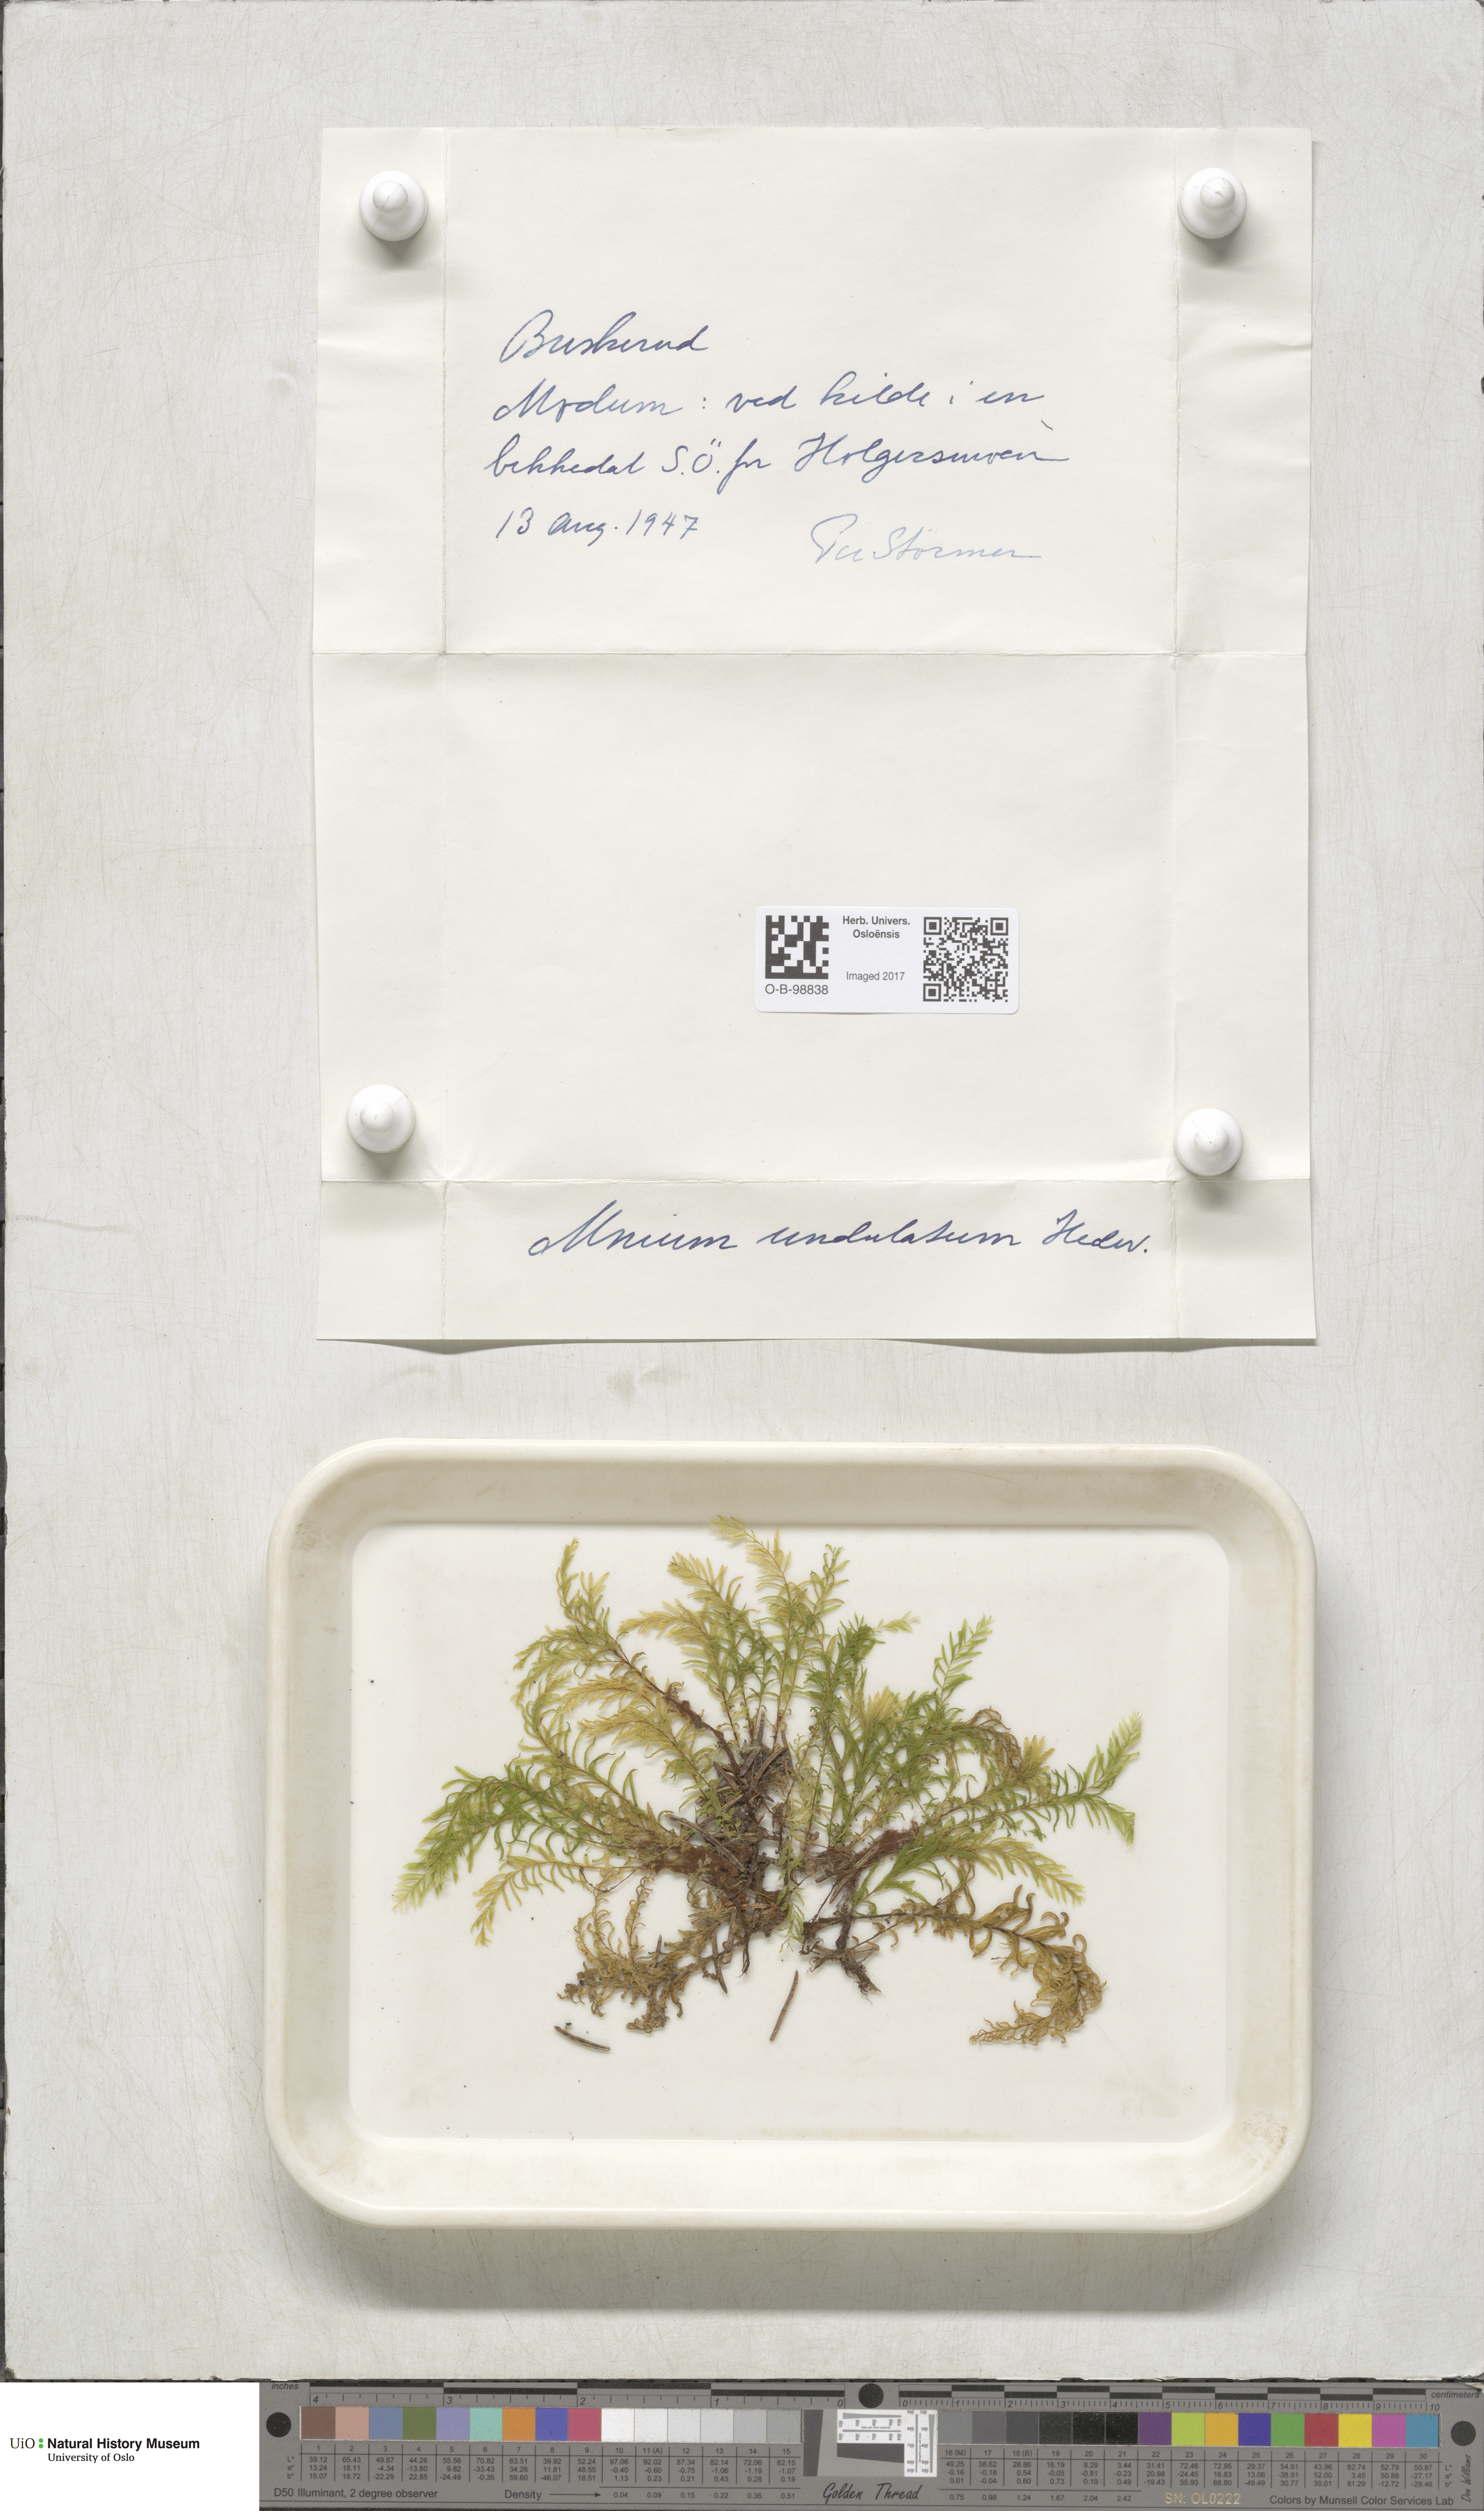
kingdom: Plantae
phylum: Bryophyta
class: Bryopsida
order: Bryales
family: Mniaceae
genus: Plagiomnium
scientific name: Plagiomnium undulatum
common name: Hart's-tongue thyme-moss
